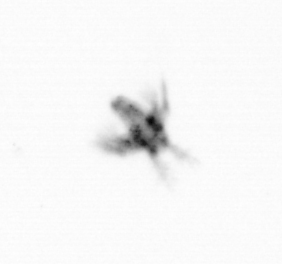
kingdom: Animalia
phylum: Arthropoda
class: Copepoda
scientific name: Copepoda
